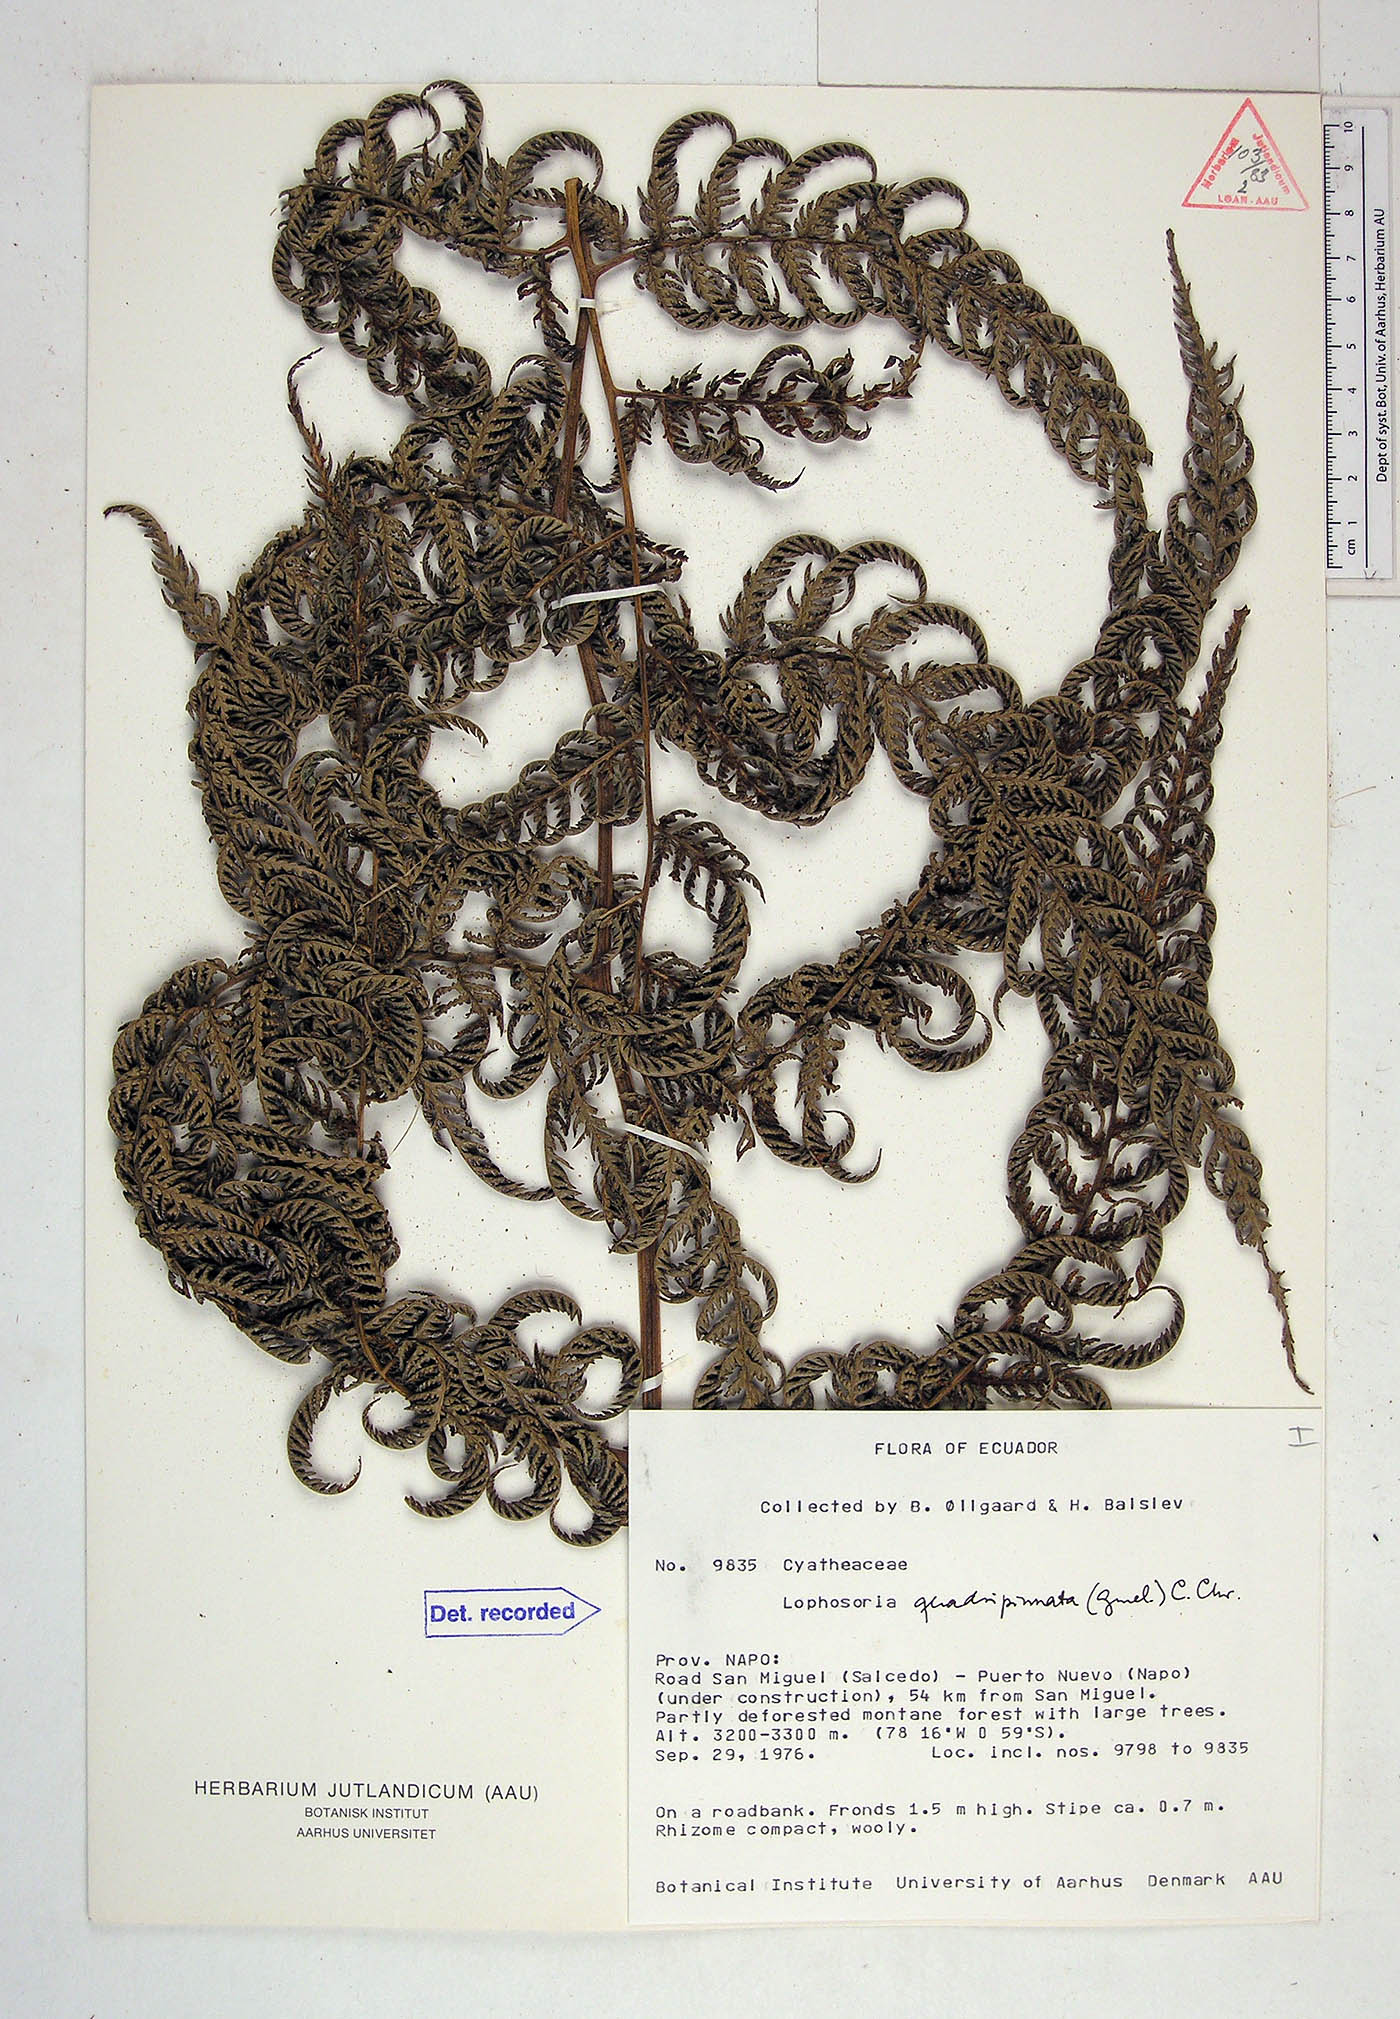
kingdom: Plantae
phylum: Tracheophyta
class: Polypodiopsida
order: Cyatheales
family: Dicksoniaceae
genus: Lophosoria
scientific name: Lophosoria quadripinnata
